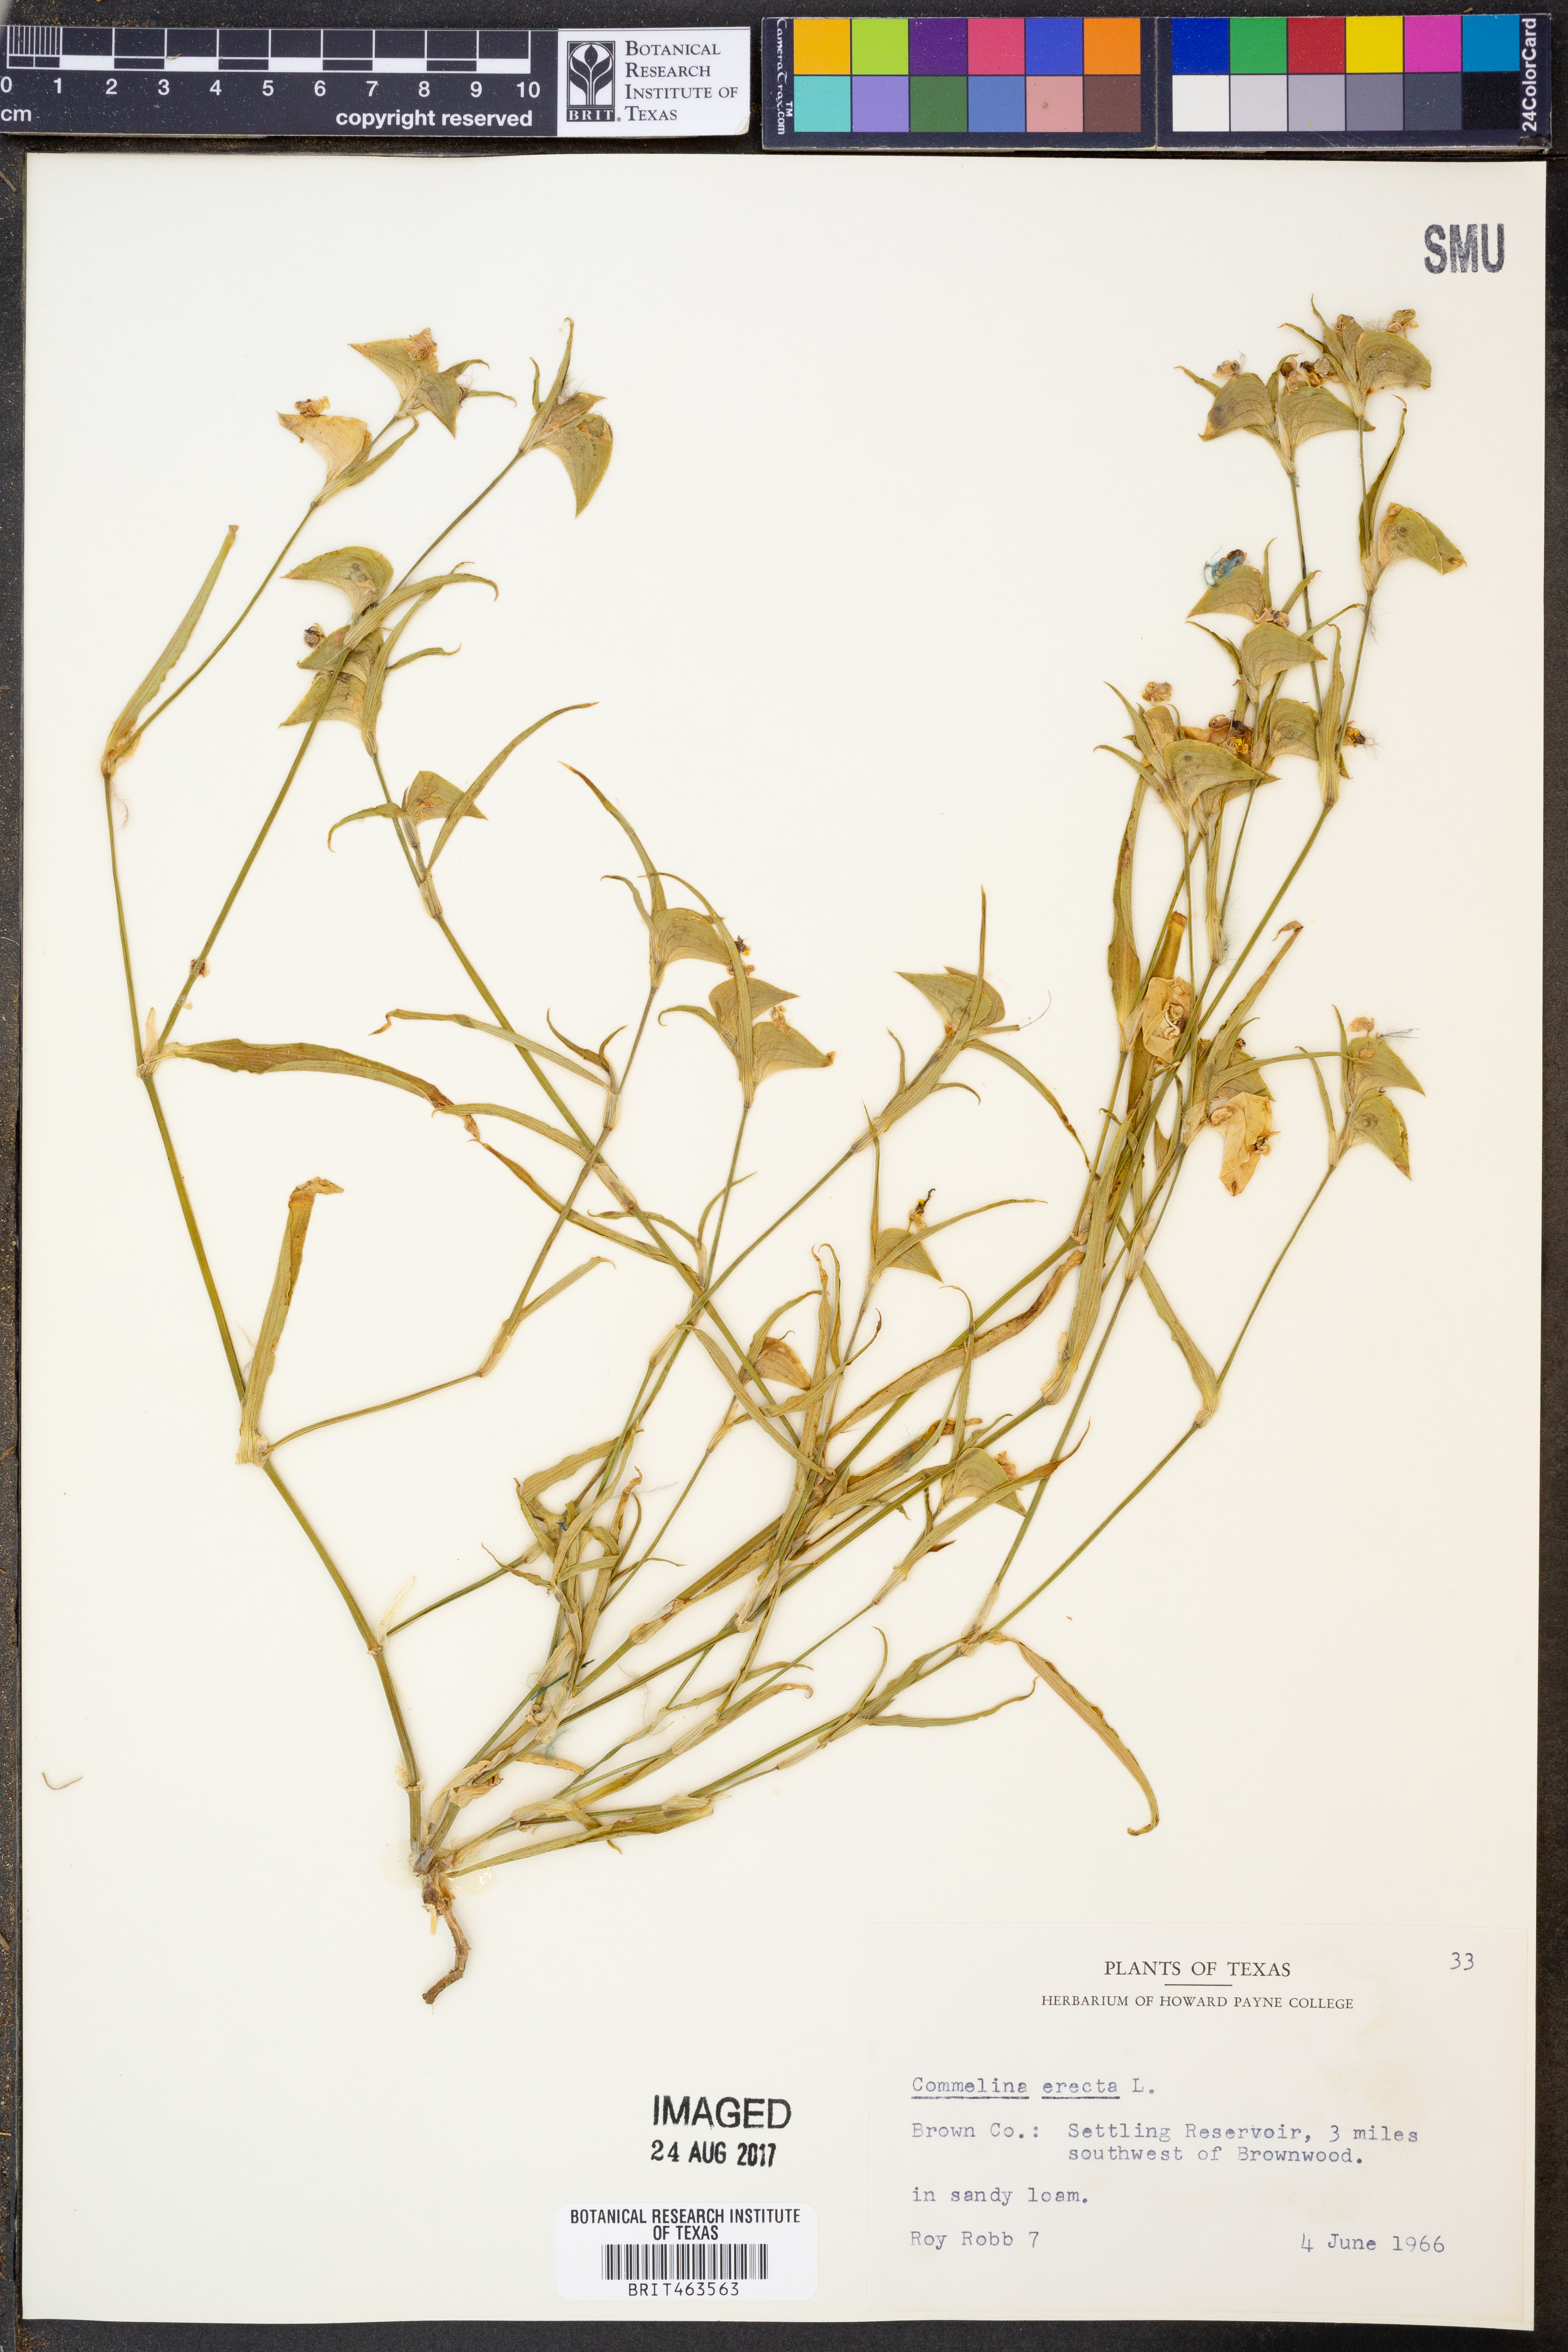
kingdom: Plantae
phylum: Tracheophyta
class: Liliopsida
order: Commelinales
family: Commelinaceae
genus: Commelina
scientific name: Commelina erecta
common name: Blousel blommetjie
